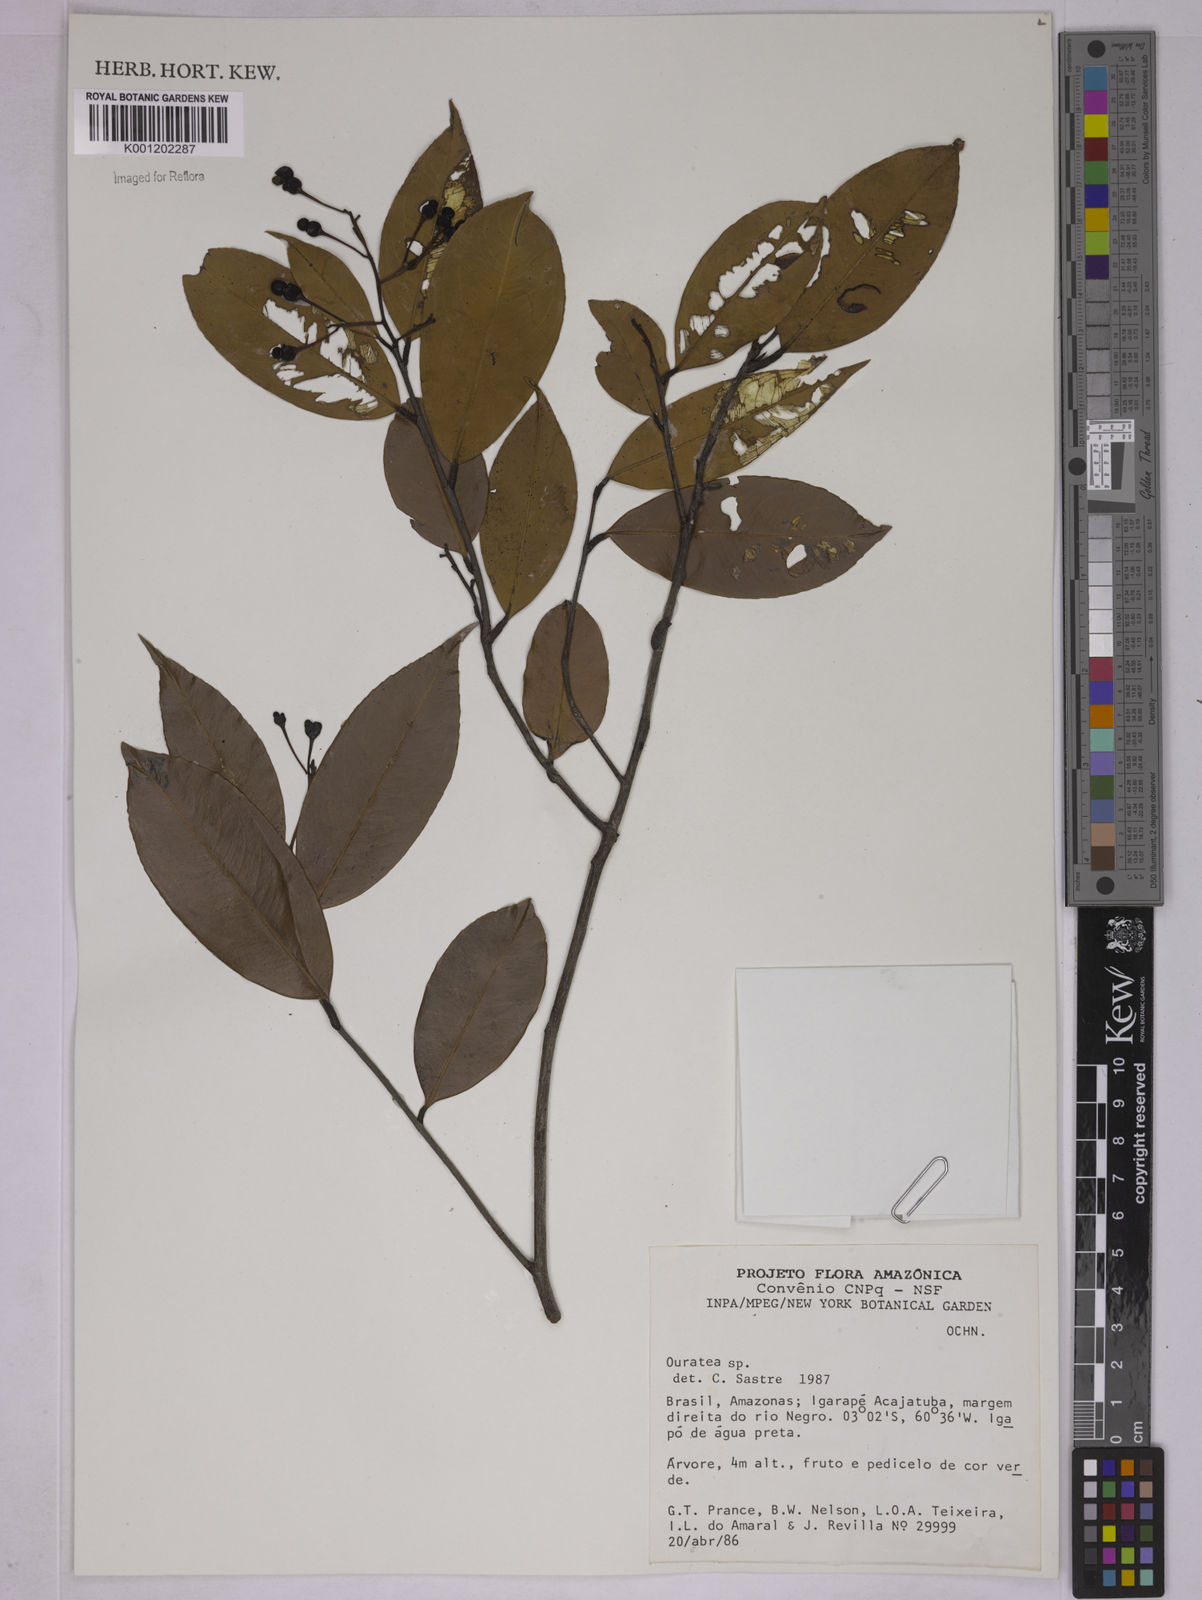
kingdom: Plantae
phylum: Tracheophyta
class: Magnoliopsida
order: Malpighiales
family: Ochnaceae
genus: Ouratea
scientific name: Ouratea
